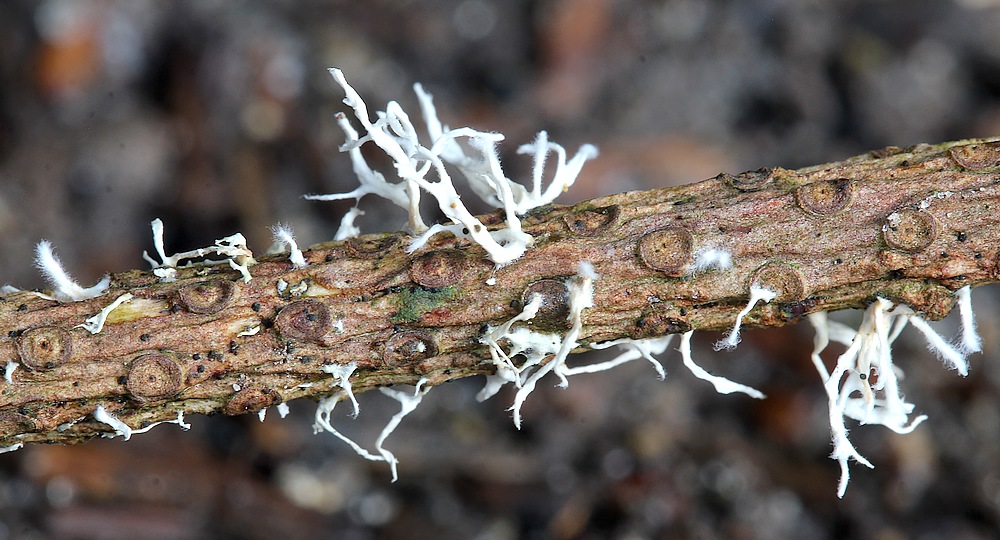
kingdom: Fungi
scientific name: Fungi
